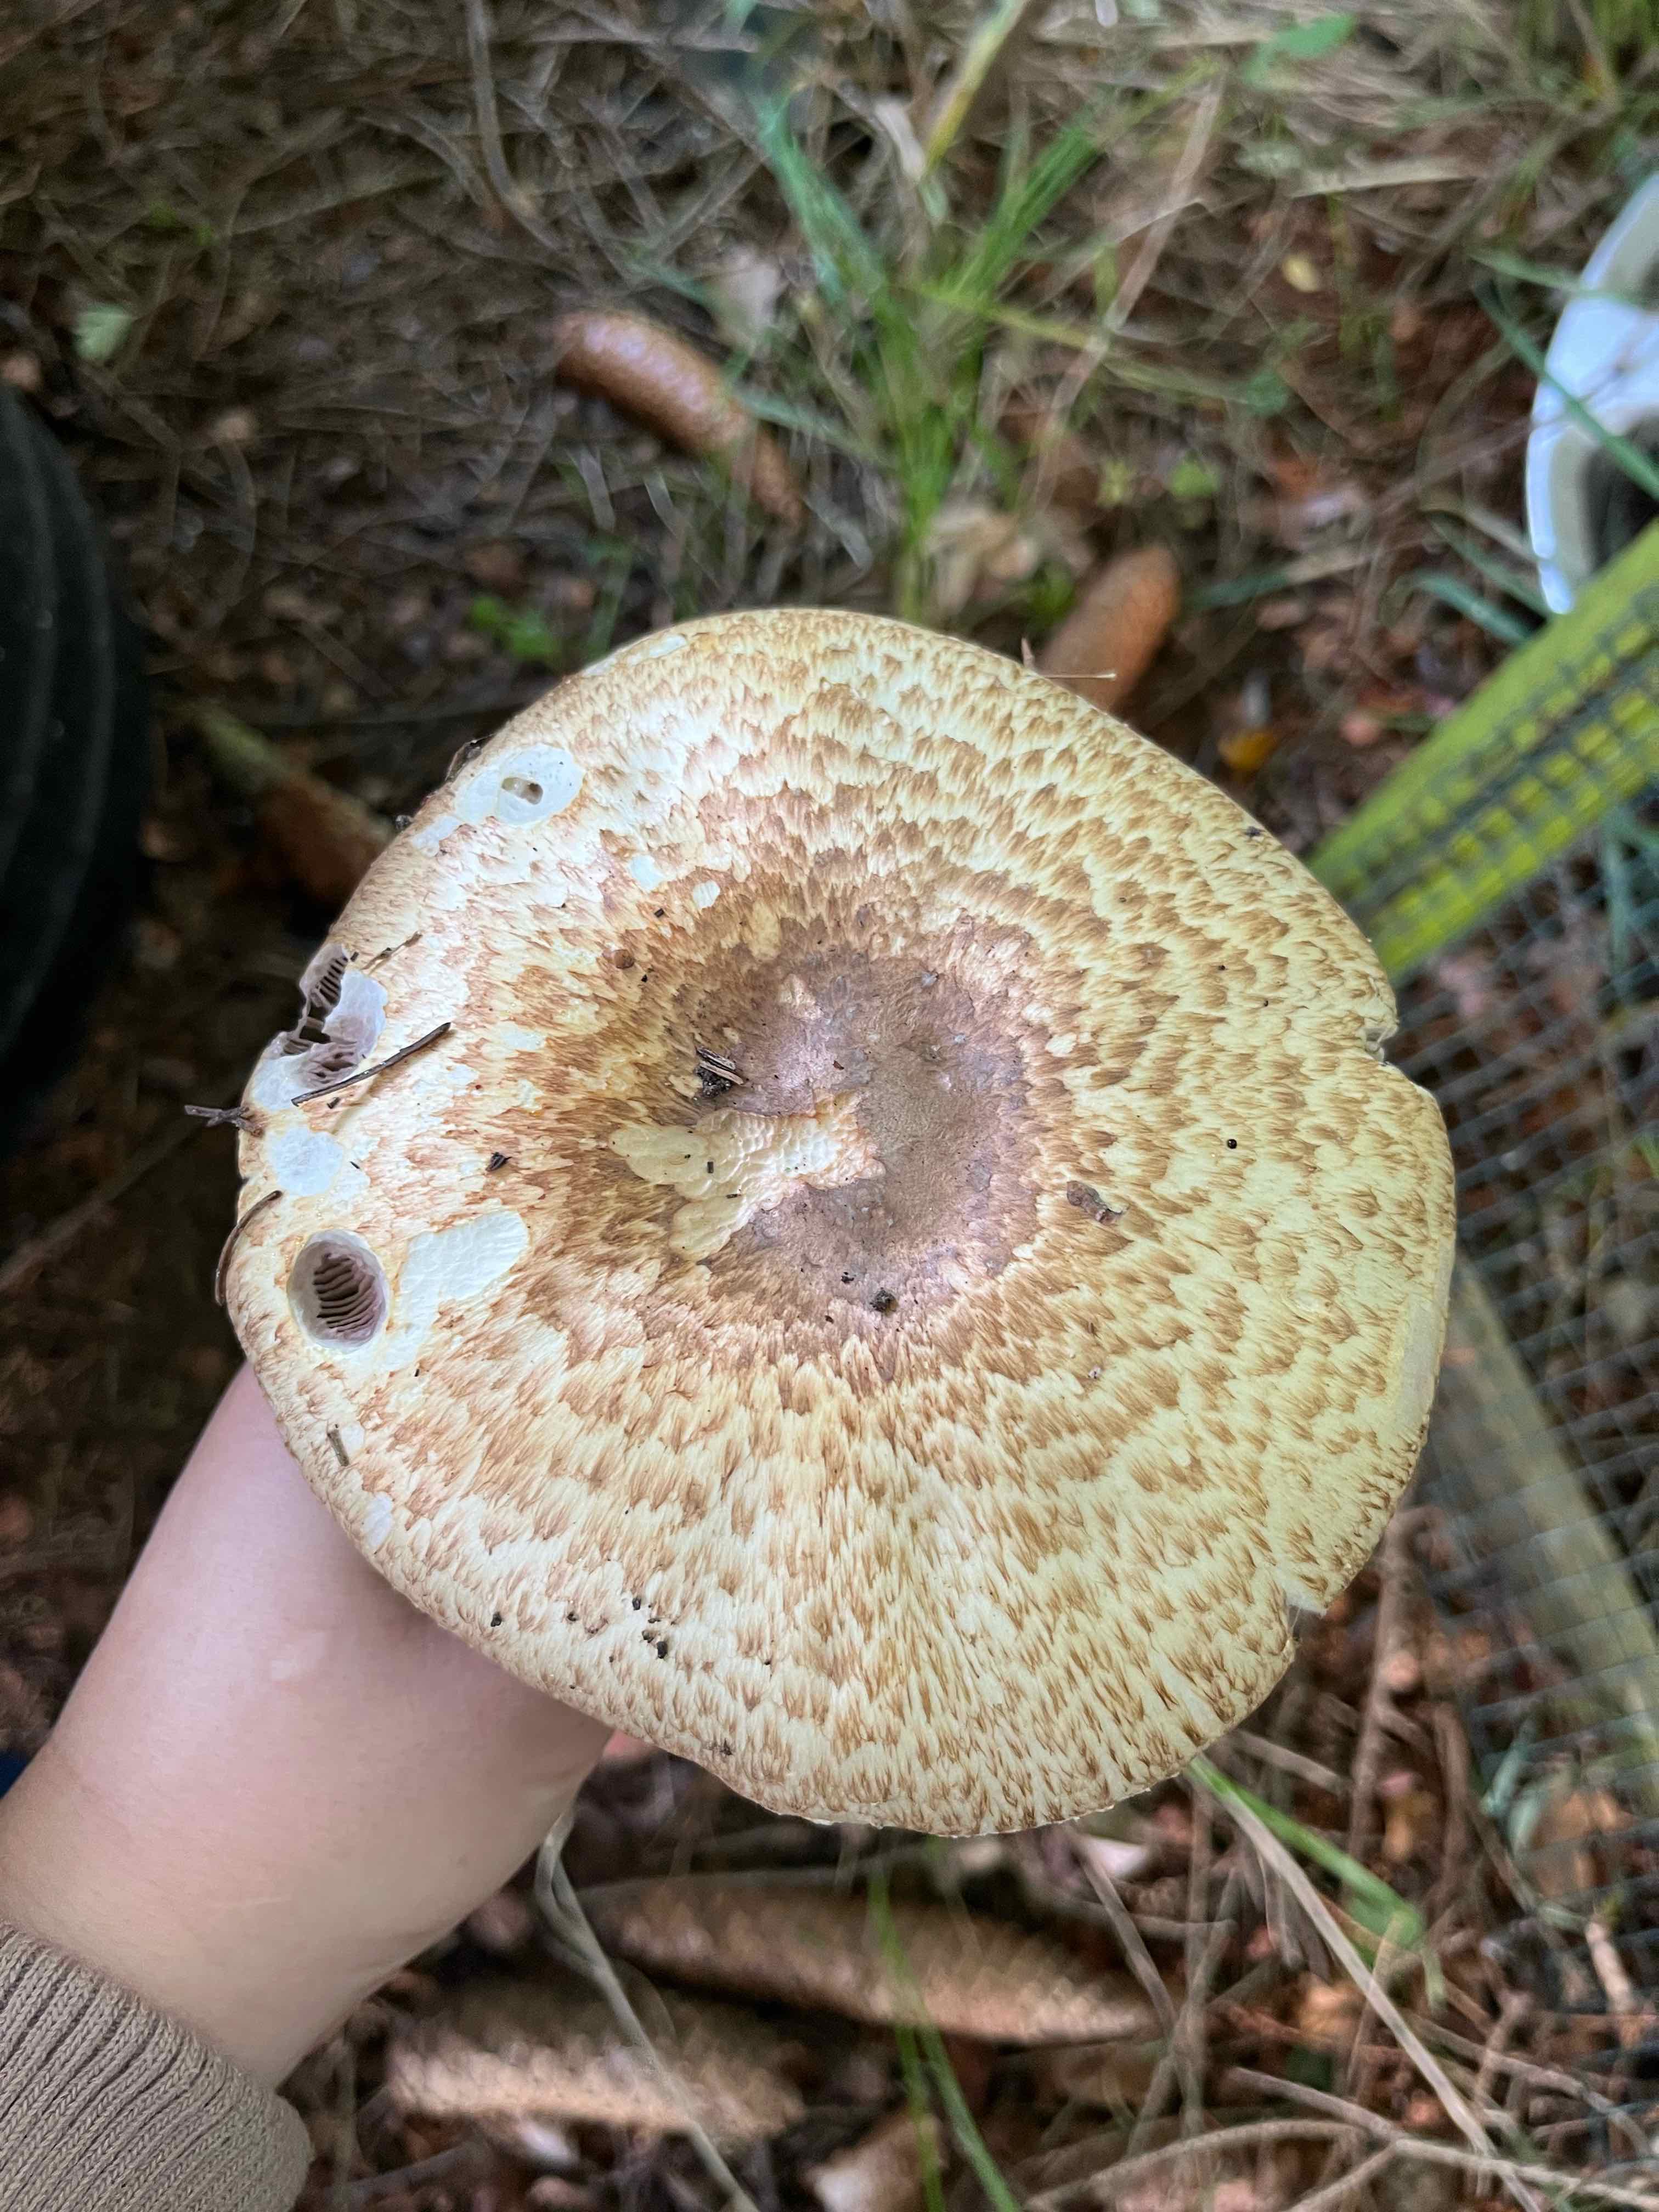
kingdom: Fungi
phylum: Basidiomycota
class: Agaricomycetes
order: Agaricales
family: Agaricaceae
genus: Agaricus
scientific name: Agaricus augustus
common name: prægtig champignon
